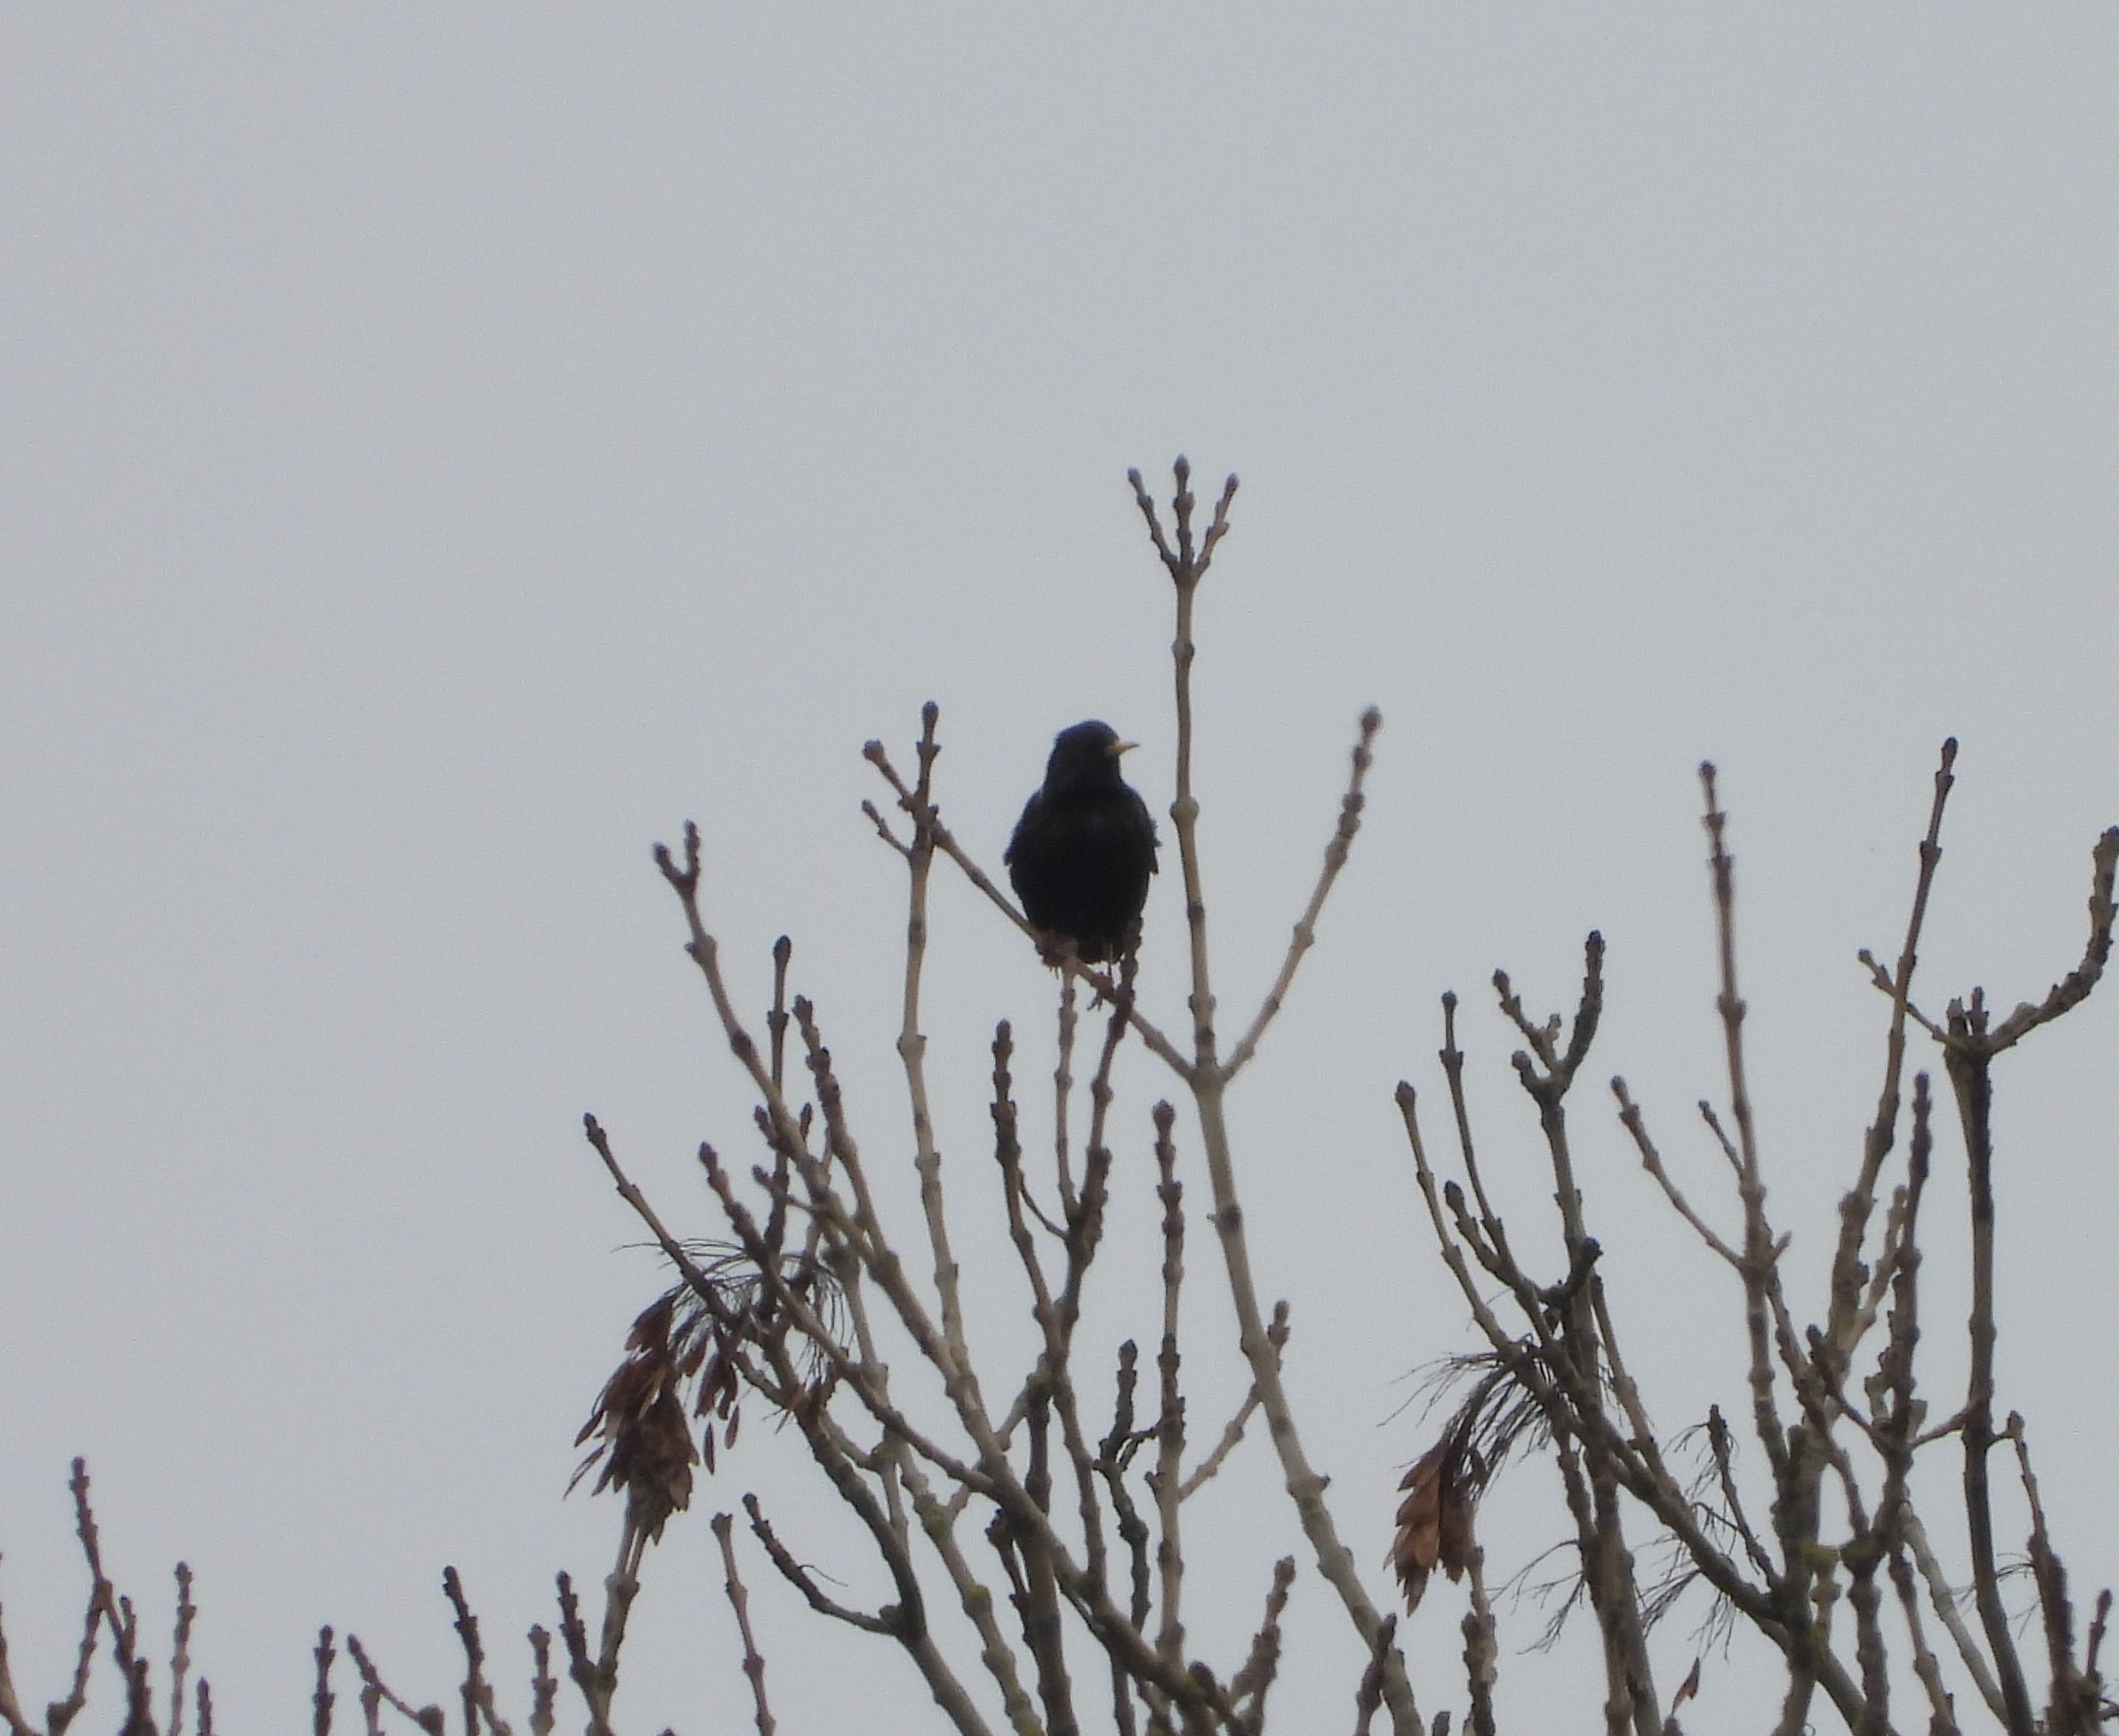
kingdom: Animalia
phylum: Chordata
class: Aves
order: Passeriformes
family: Sturnidae
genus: Sturnus
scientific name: Sturnus vulgaris
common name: Stær
